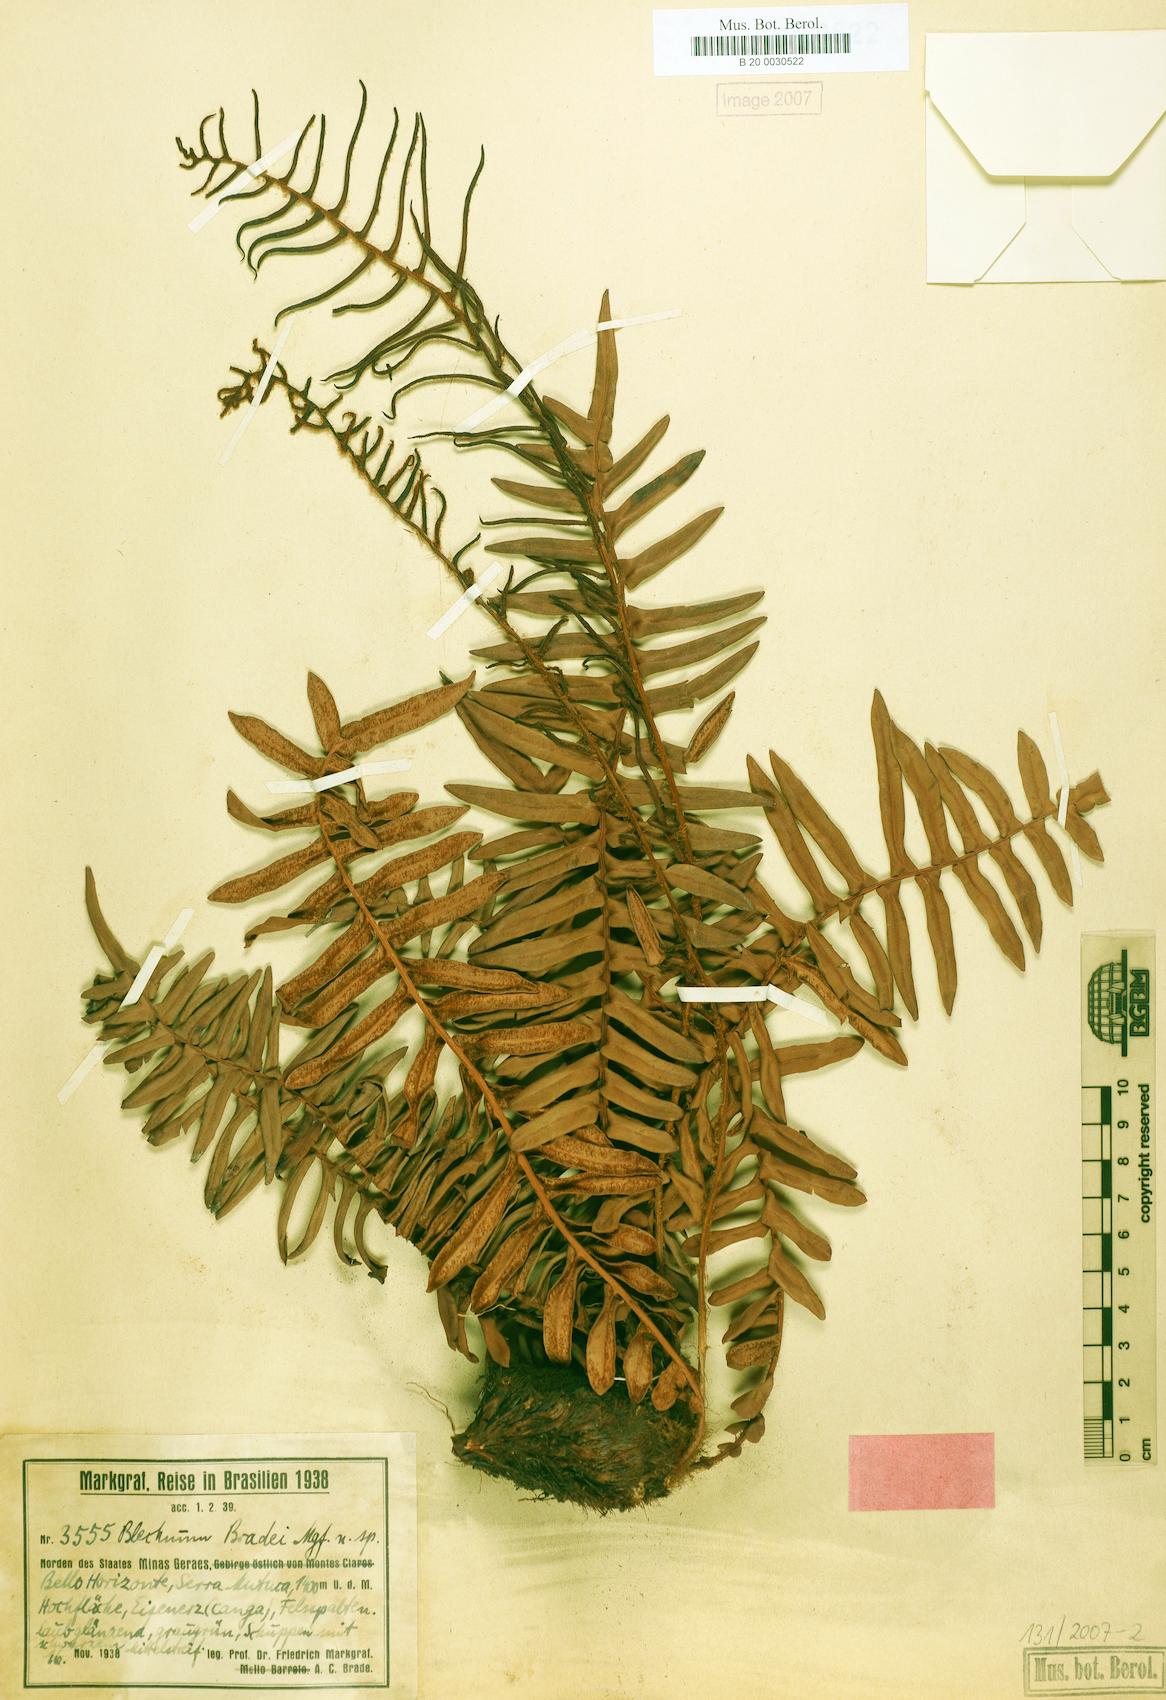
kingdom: Plantae
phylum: Tracheophyta
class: Polypodiopsida
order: Polypodiales
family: Blechnaceae
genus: Lomariocycas
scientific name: Lomariocycas schomburgkii
